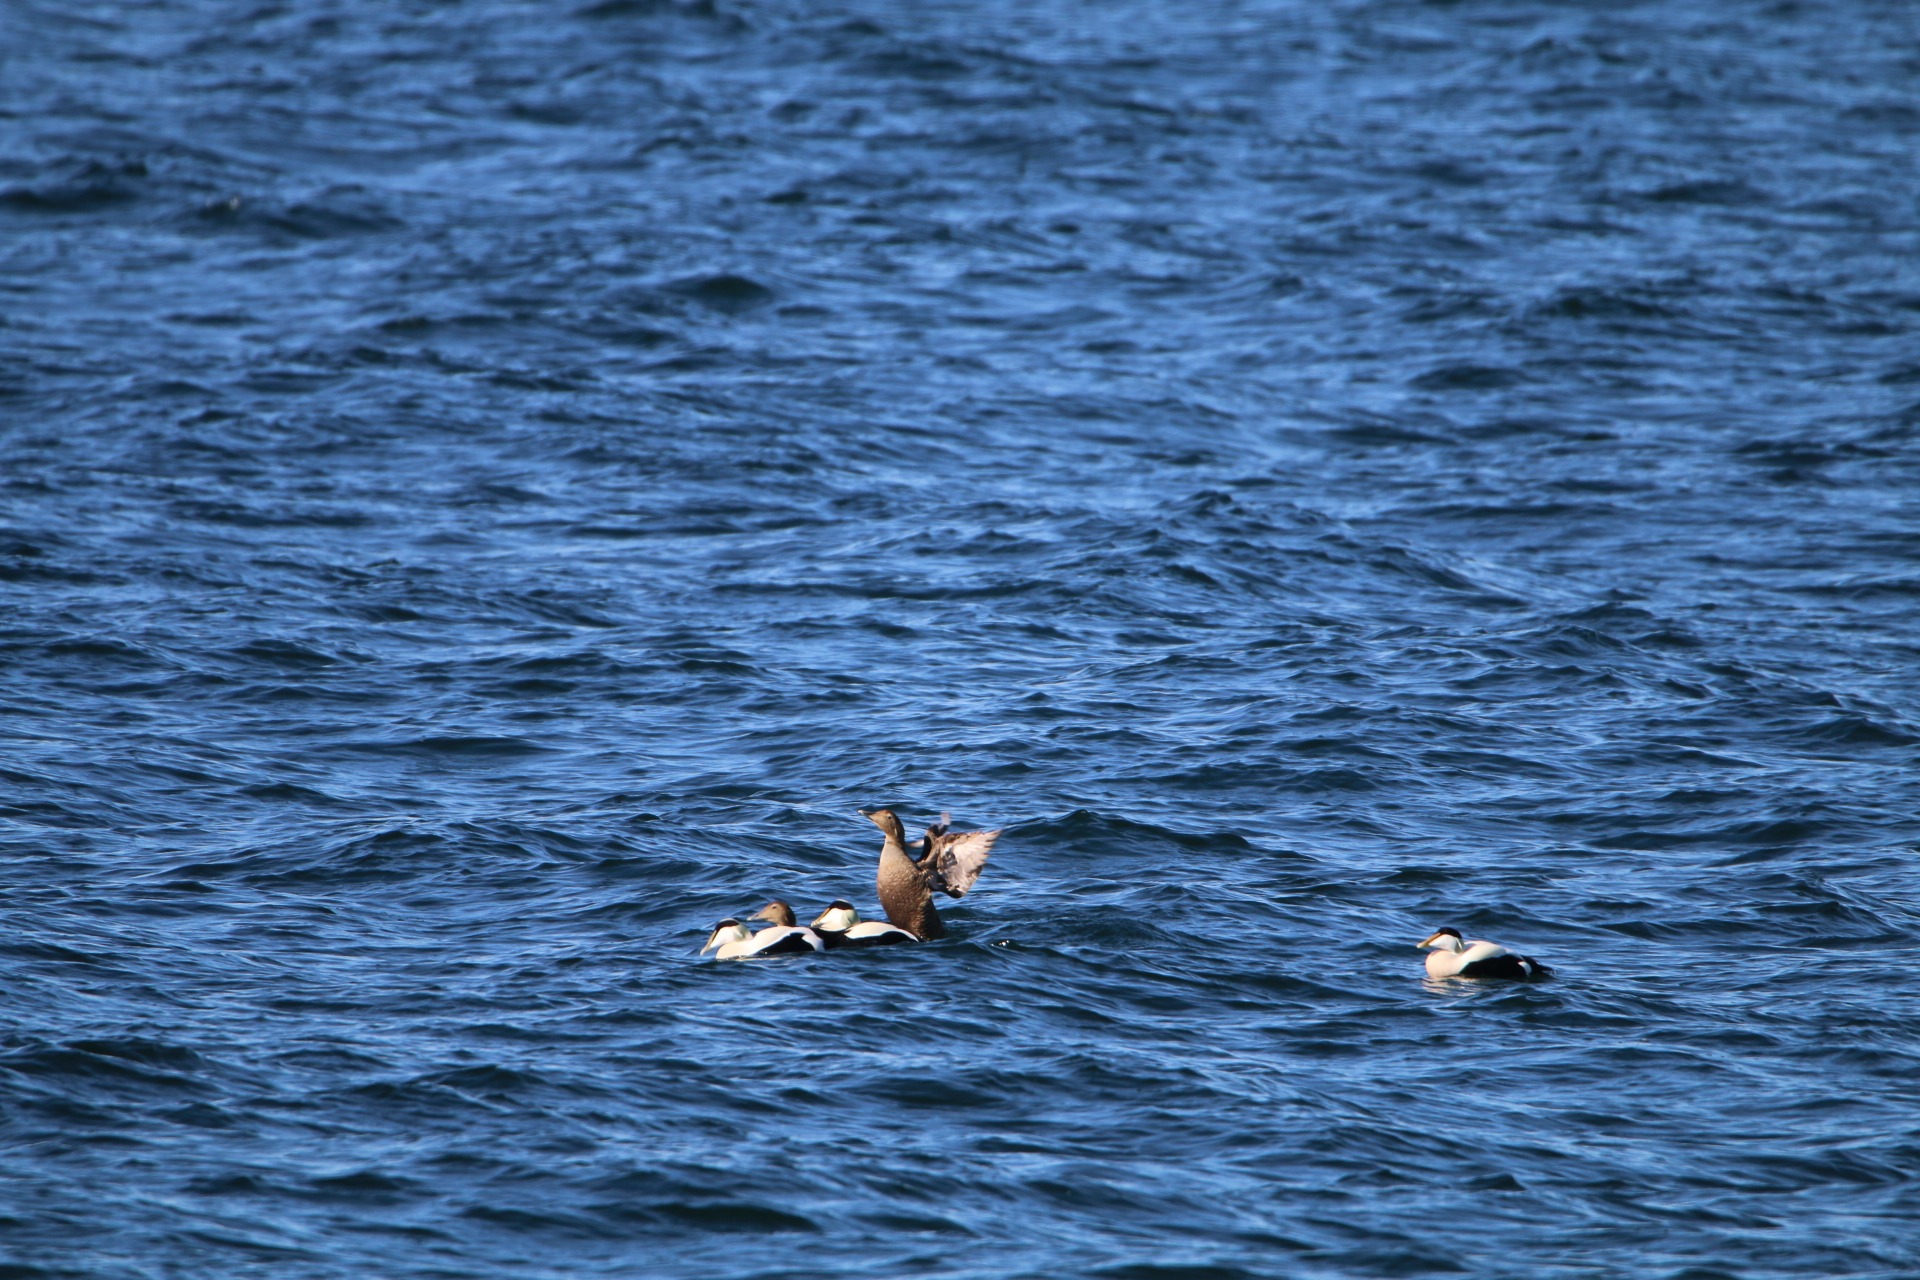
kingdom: Animalia
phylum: Chordata
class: Aves
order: Anseriformes
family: Anatidae
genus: Somateria
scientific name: Somateria mollissima
